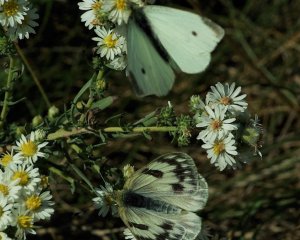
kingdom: Animalia
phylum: Arthropoda
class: Insecta
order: Lepidoptera
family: Pieridae
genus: Pontia
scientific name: Pontia occidentalis
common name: Western White
